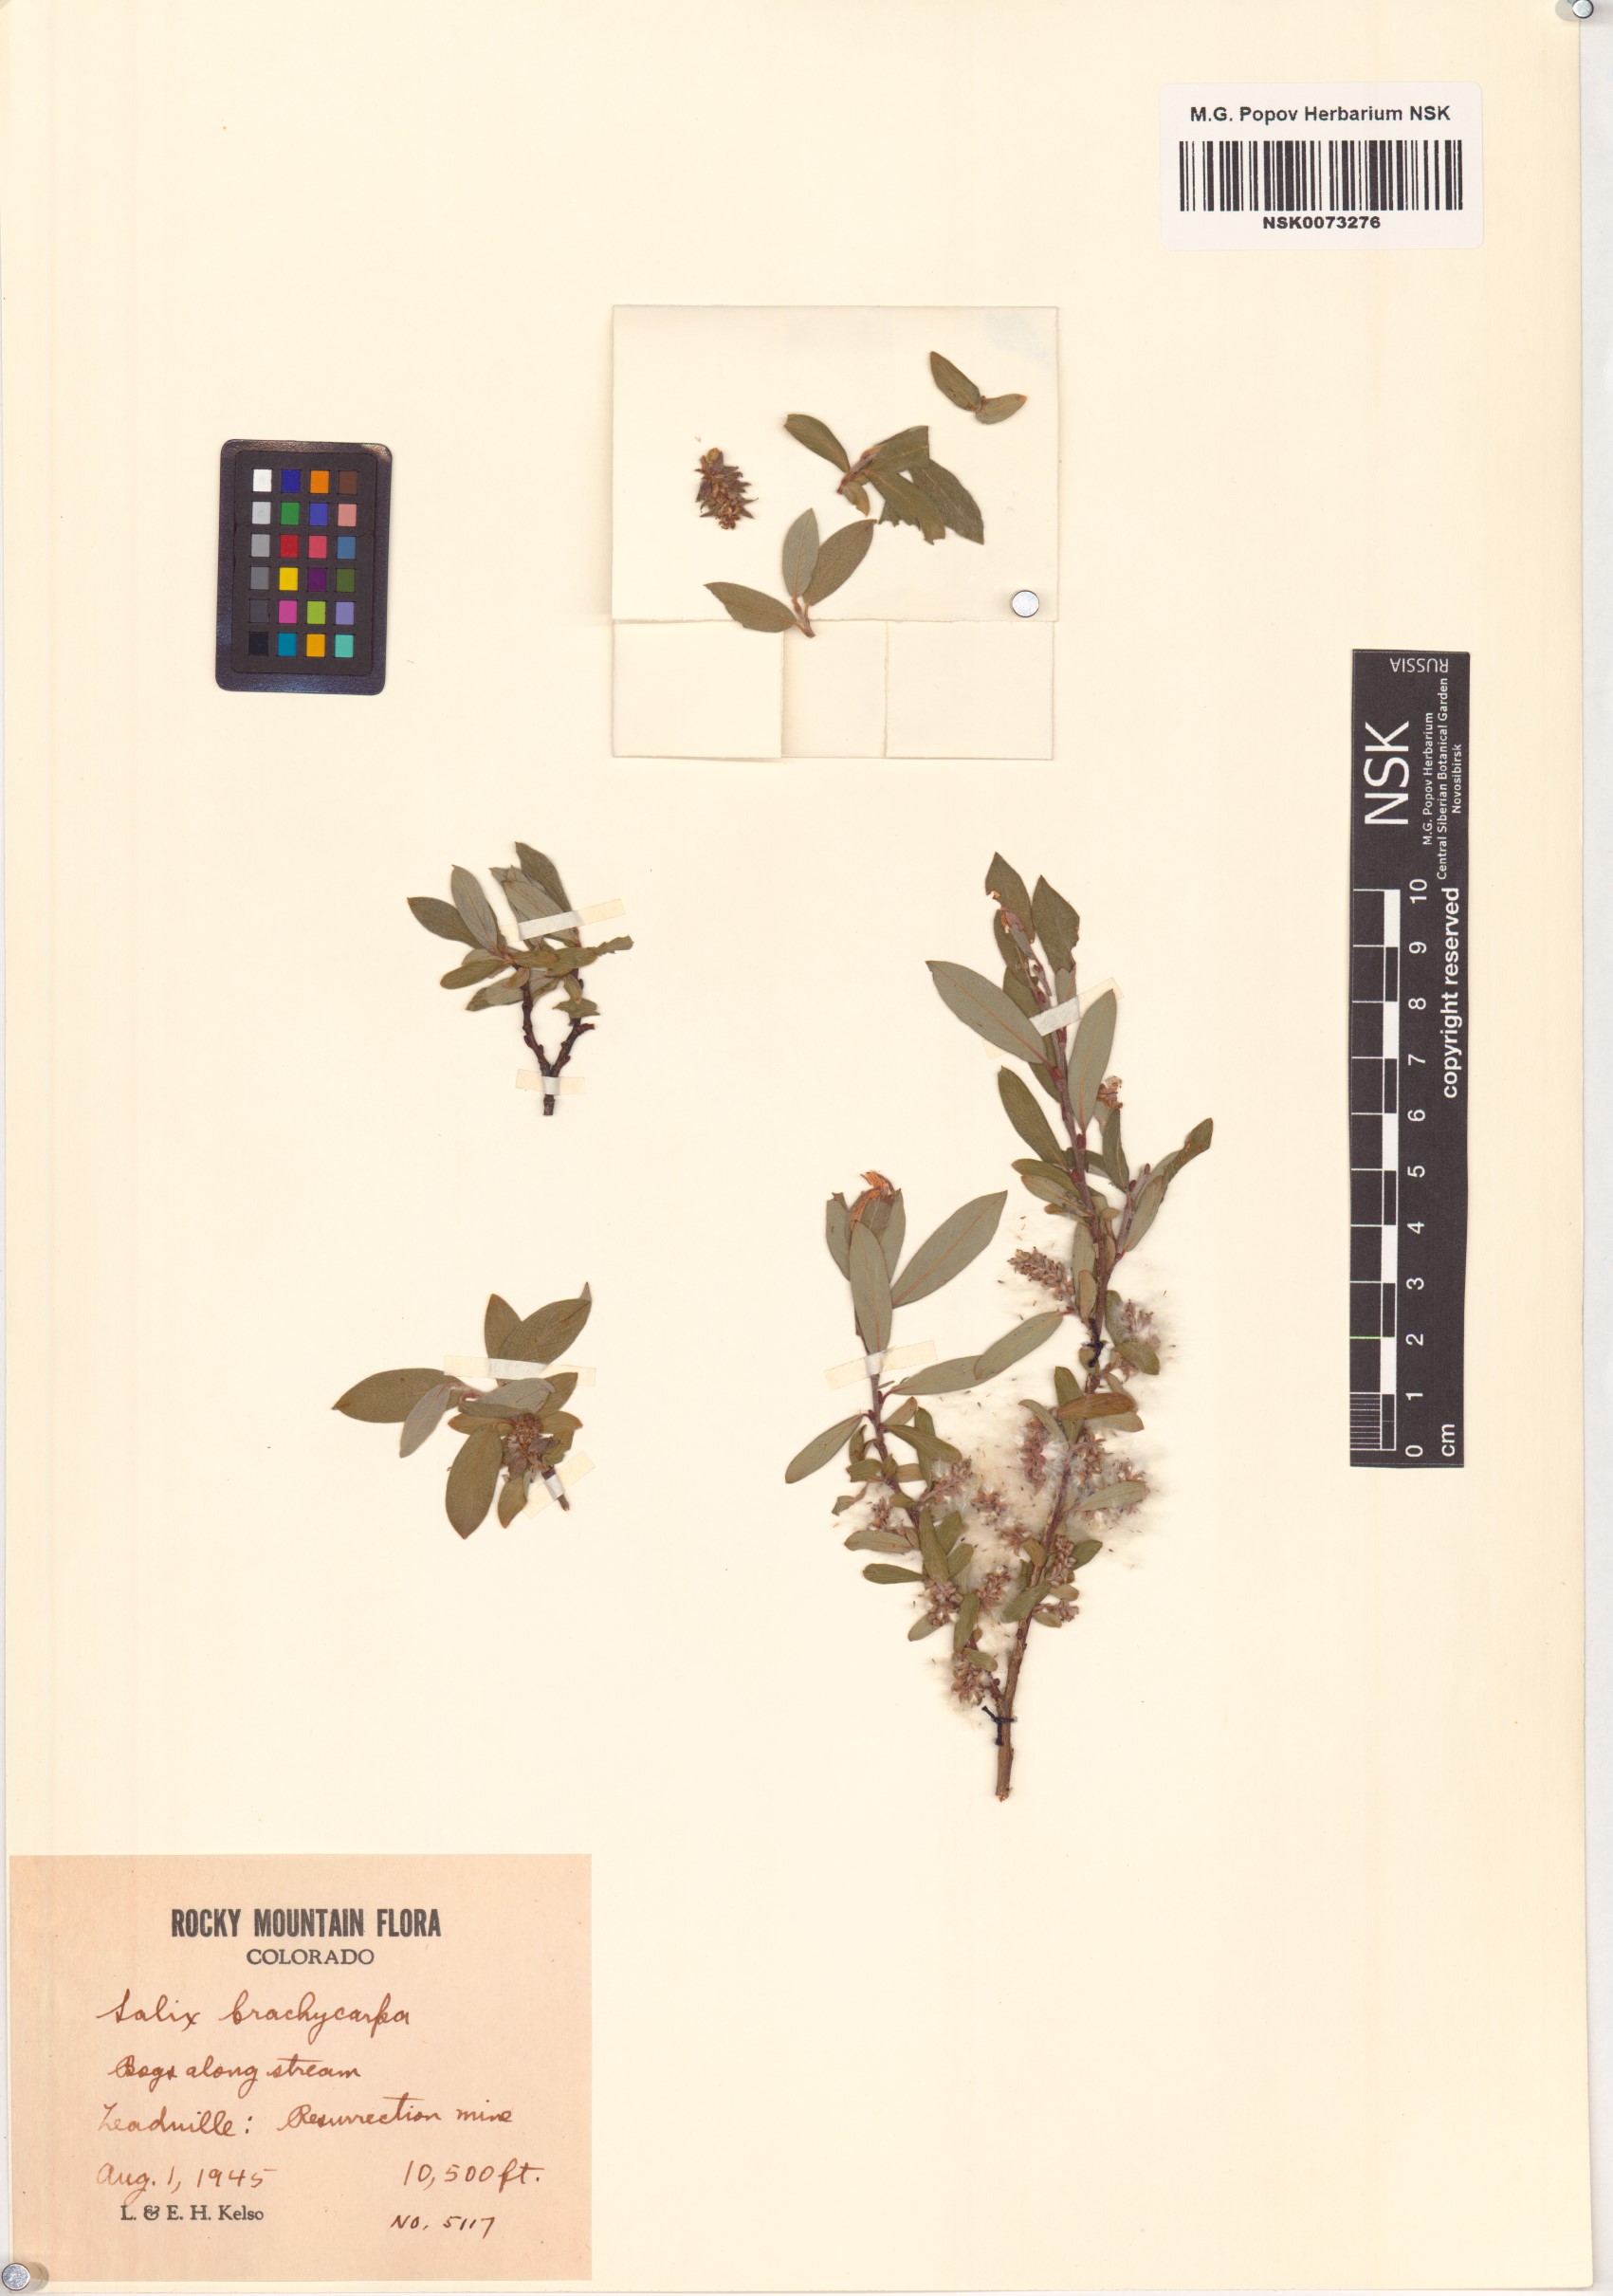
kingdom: Plantae
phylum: Tracheophyta
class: Magnoliopsida
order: Malpighiales
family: Salicaceae
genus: Salix
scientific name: Salix brachycarpa
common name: Barren-ground willow
